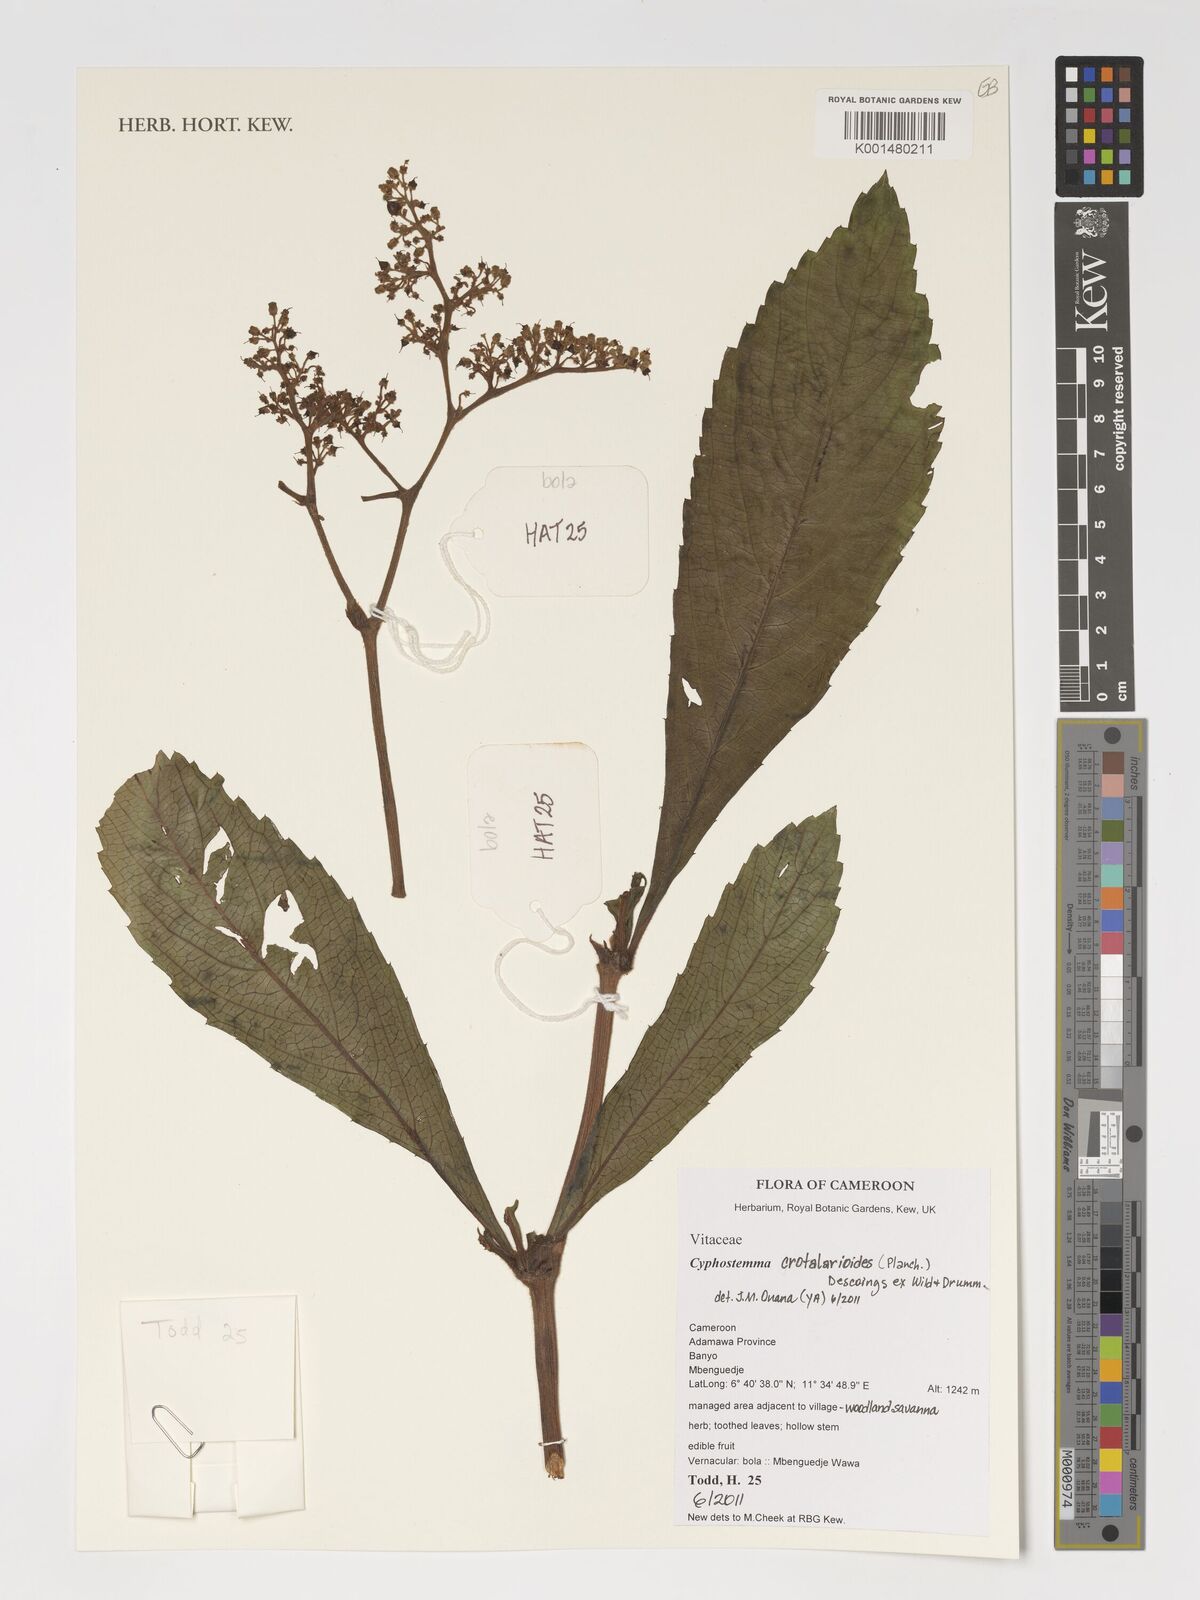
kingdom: Plantae
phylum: Tracheophyta
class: Magnoliopsida
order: Vitales
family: Vitaceae
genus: Cyphostemma
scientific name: Cyphostemma crotalarioides
